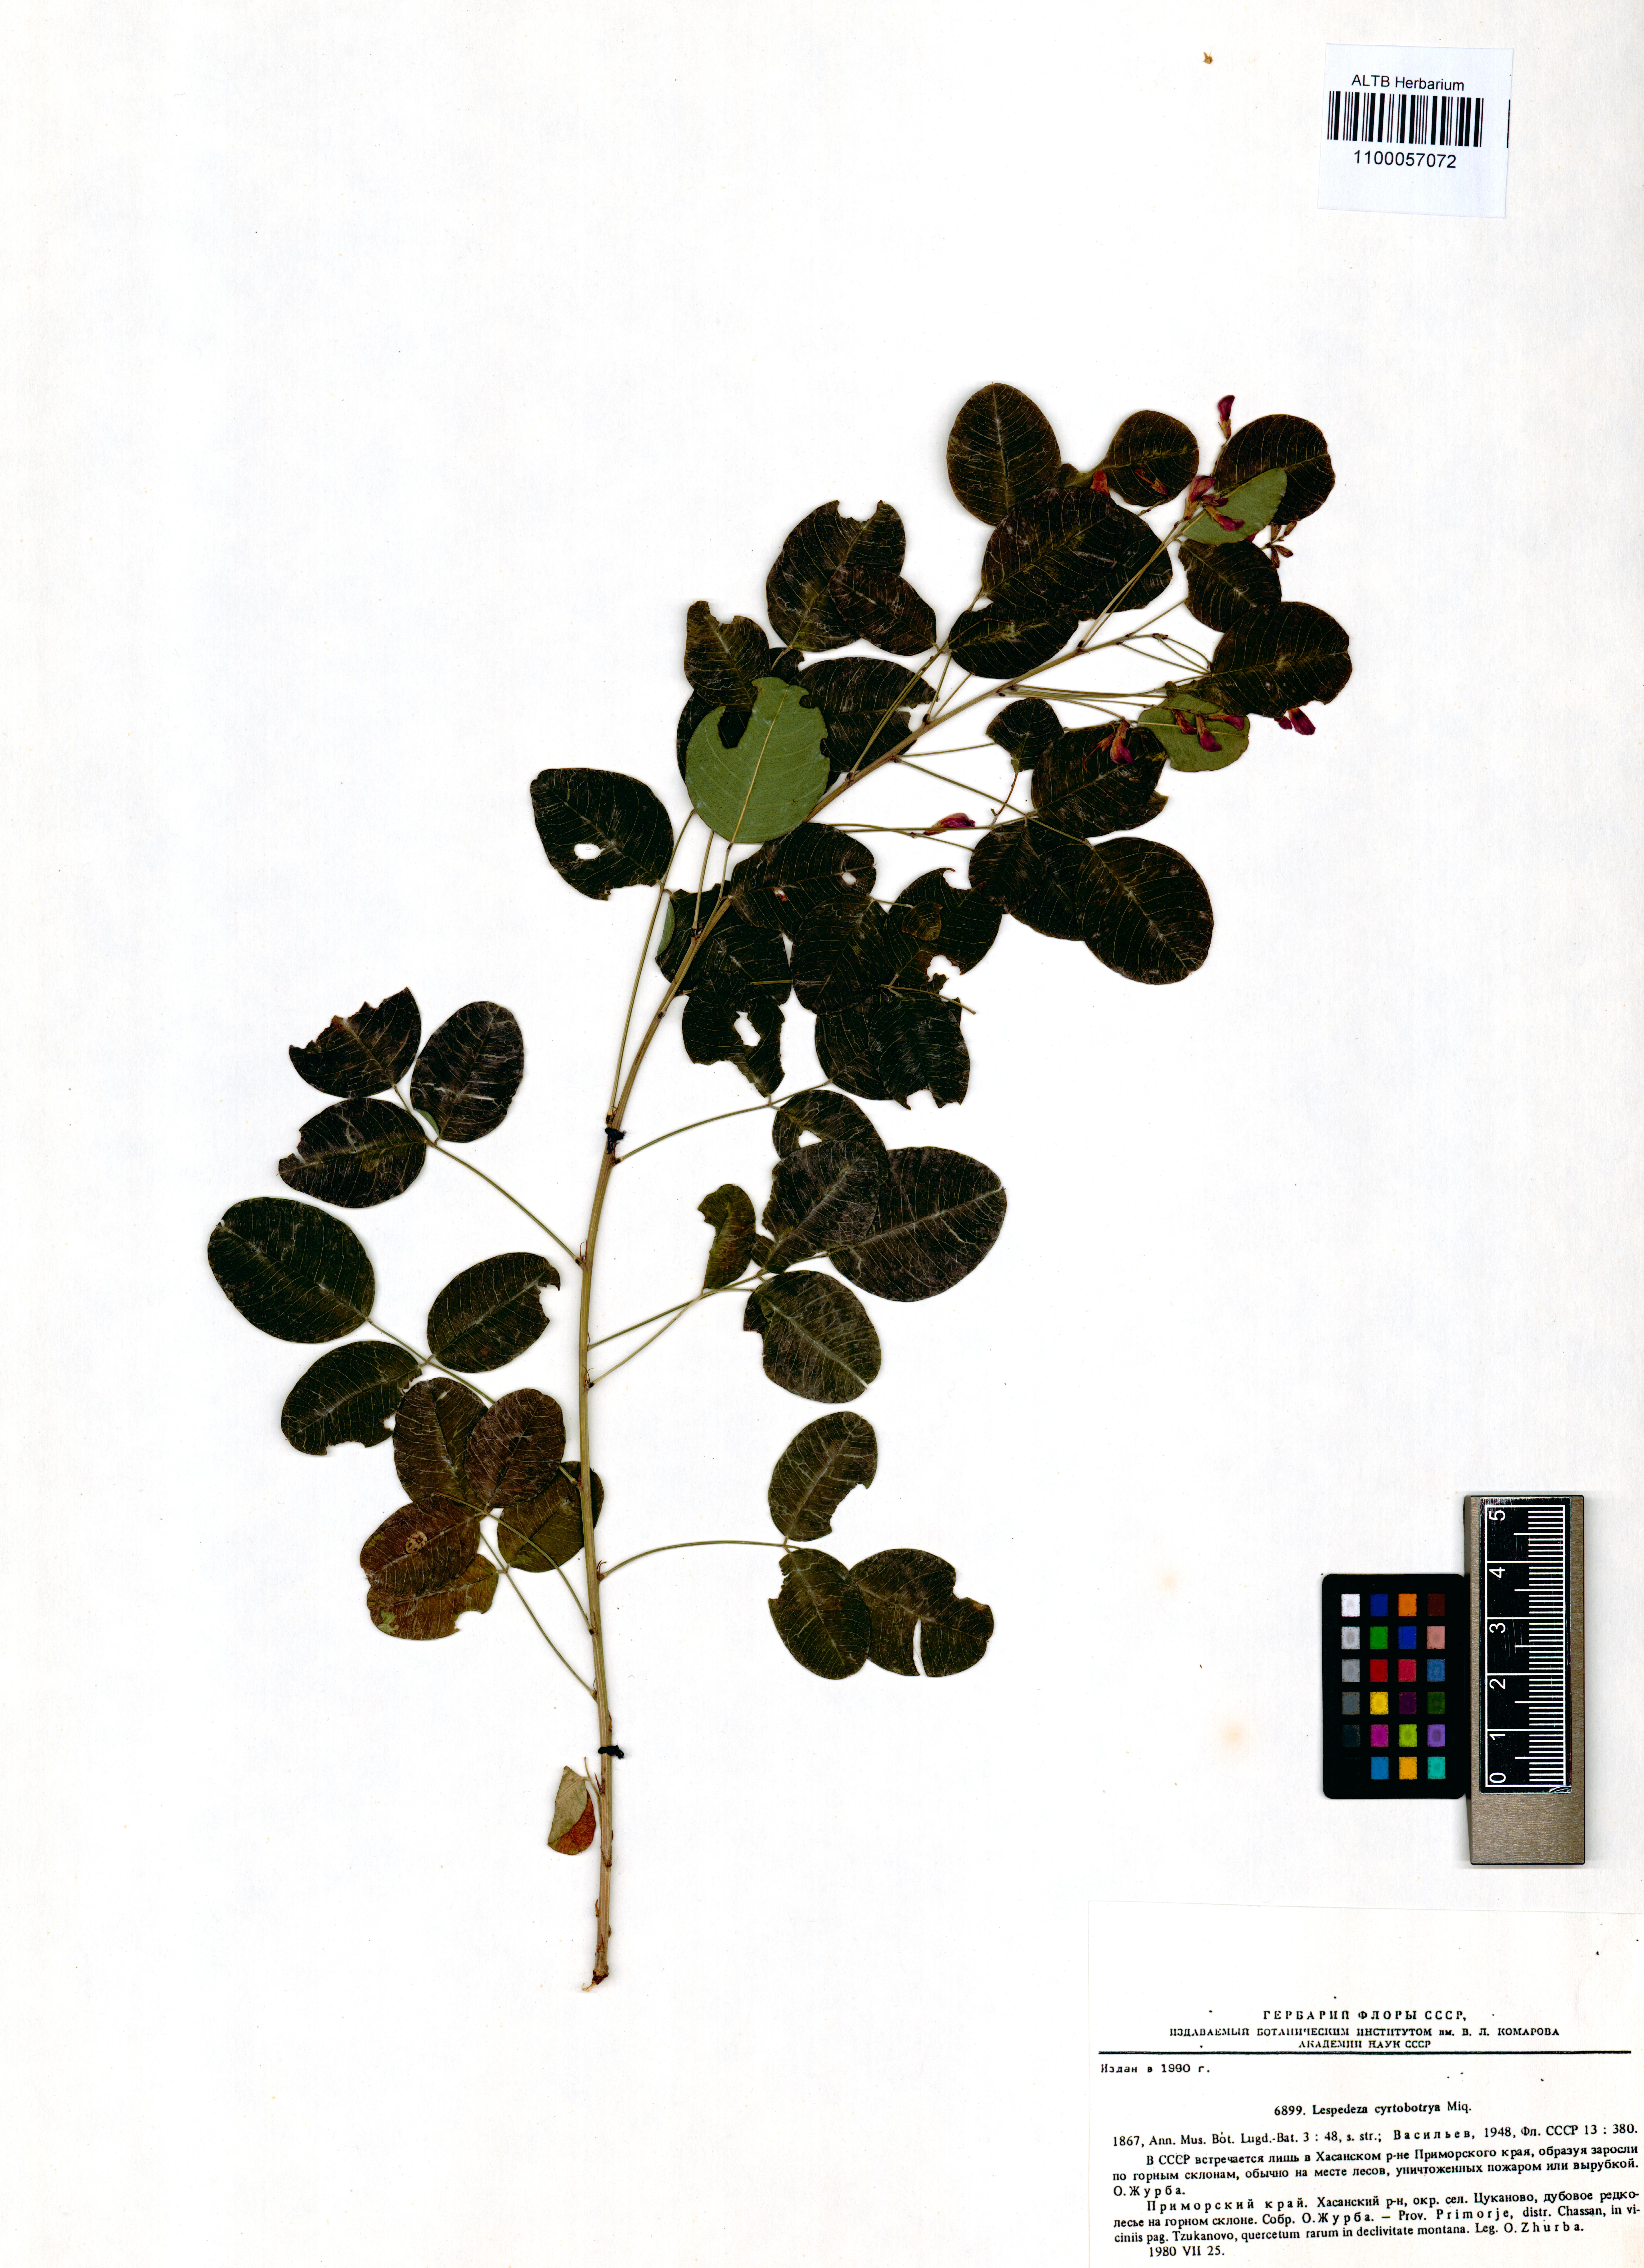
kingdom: Plantae
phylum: Tracheophyta
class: Magnoliopsida
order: Fabales
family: Fabaceae
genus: Lespedeza
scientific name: Lespedeza cyrtobotrya
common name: Leafy lespedeza
